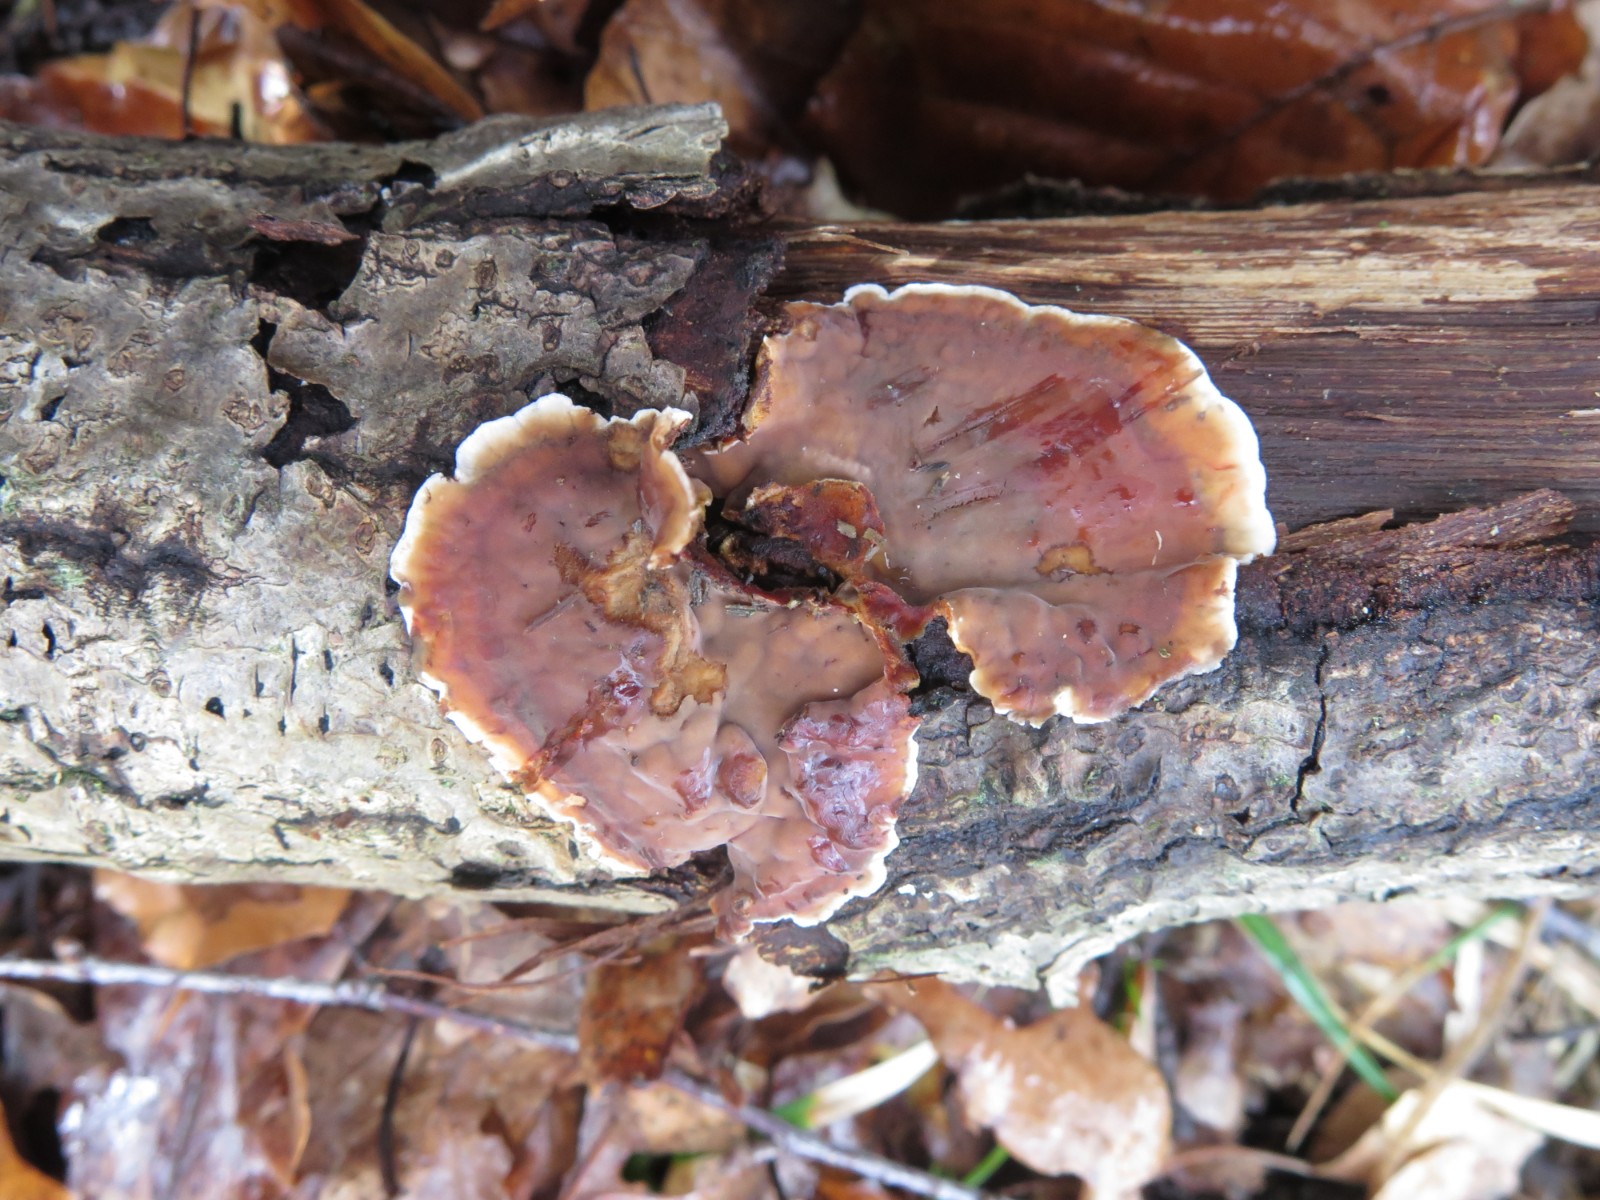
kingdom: Fungi
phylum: Basidiomycota
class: Agaricomycetes
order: Russulales
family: Stereaceae
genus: Stereum
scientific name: Stereum gausapatum
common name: tynd lædersvamp
